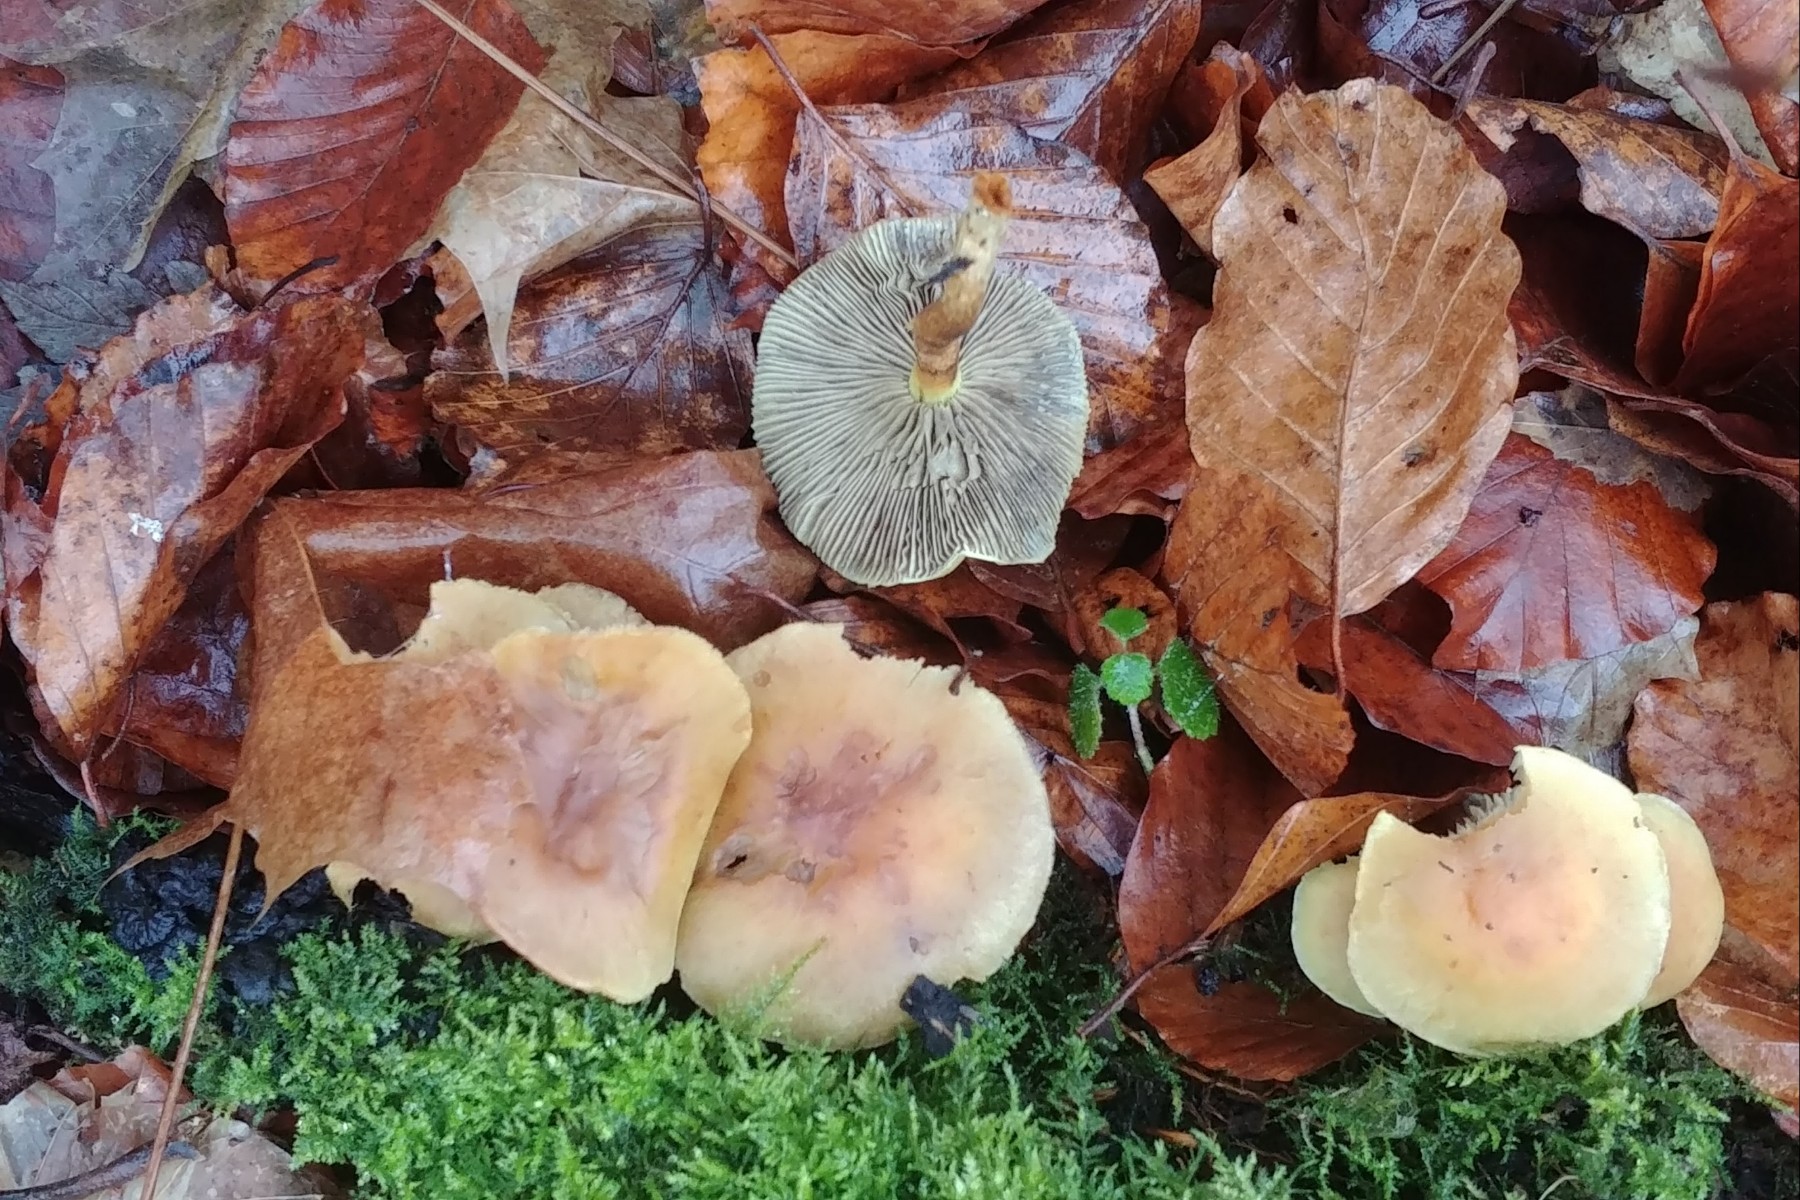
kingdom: Fungi
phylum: Basidiomycota
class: Agaricomycetes
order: Agaricales
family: Strophariaceae
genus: Hypholoma
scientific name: Hypholoma fasciculare
